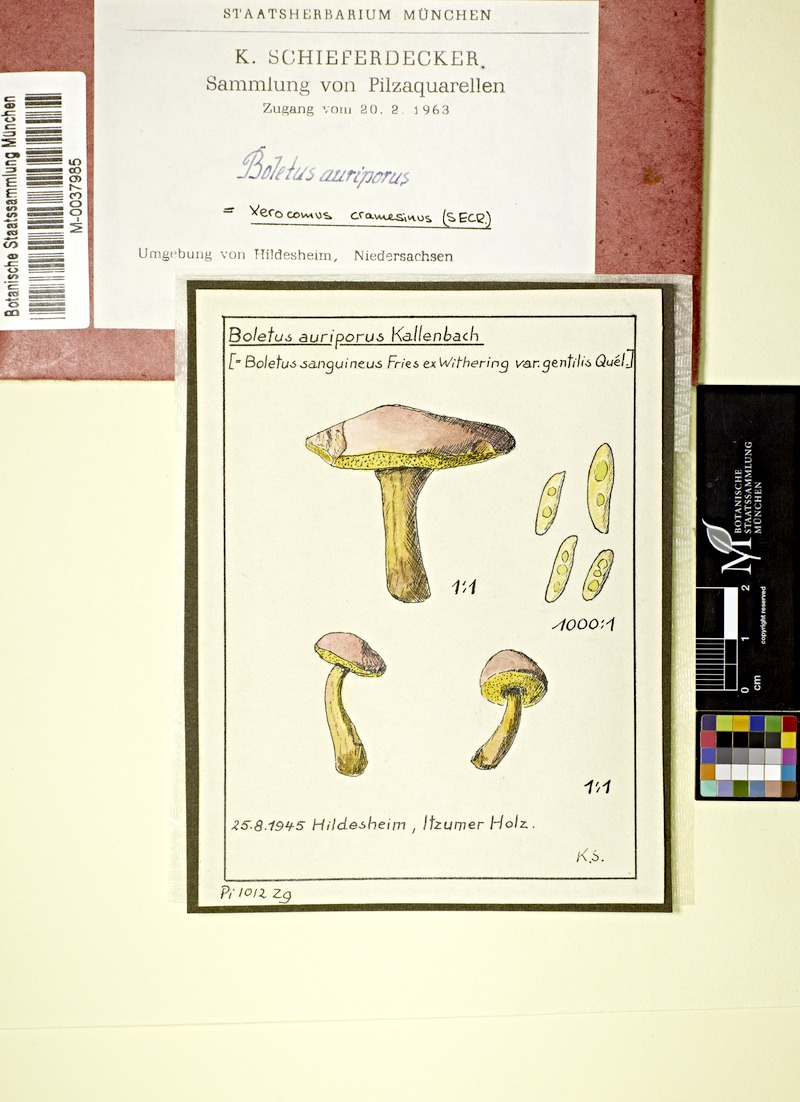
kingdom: Fungi
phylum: Basidiomycota
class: Agaricomycetes
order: Boletales
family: Boletaceae
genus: Aureoboletus
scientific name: Aureoboletus gentilis
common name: Gilded bolete
